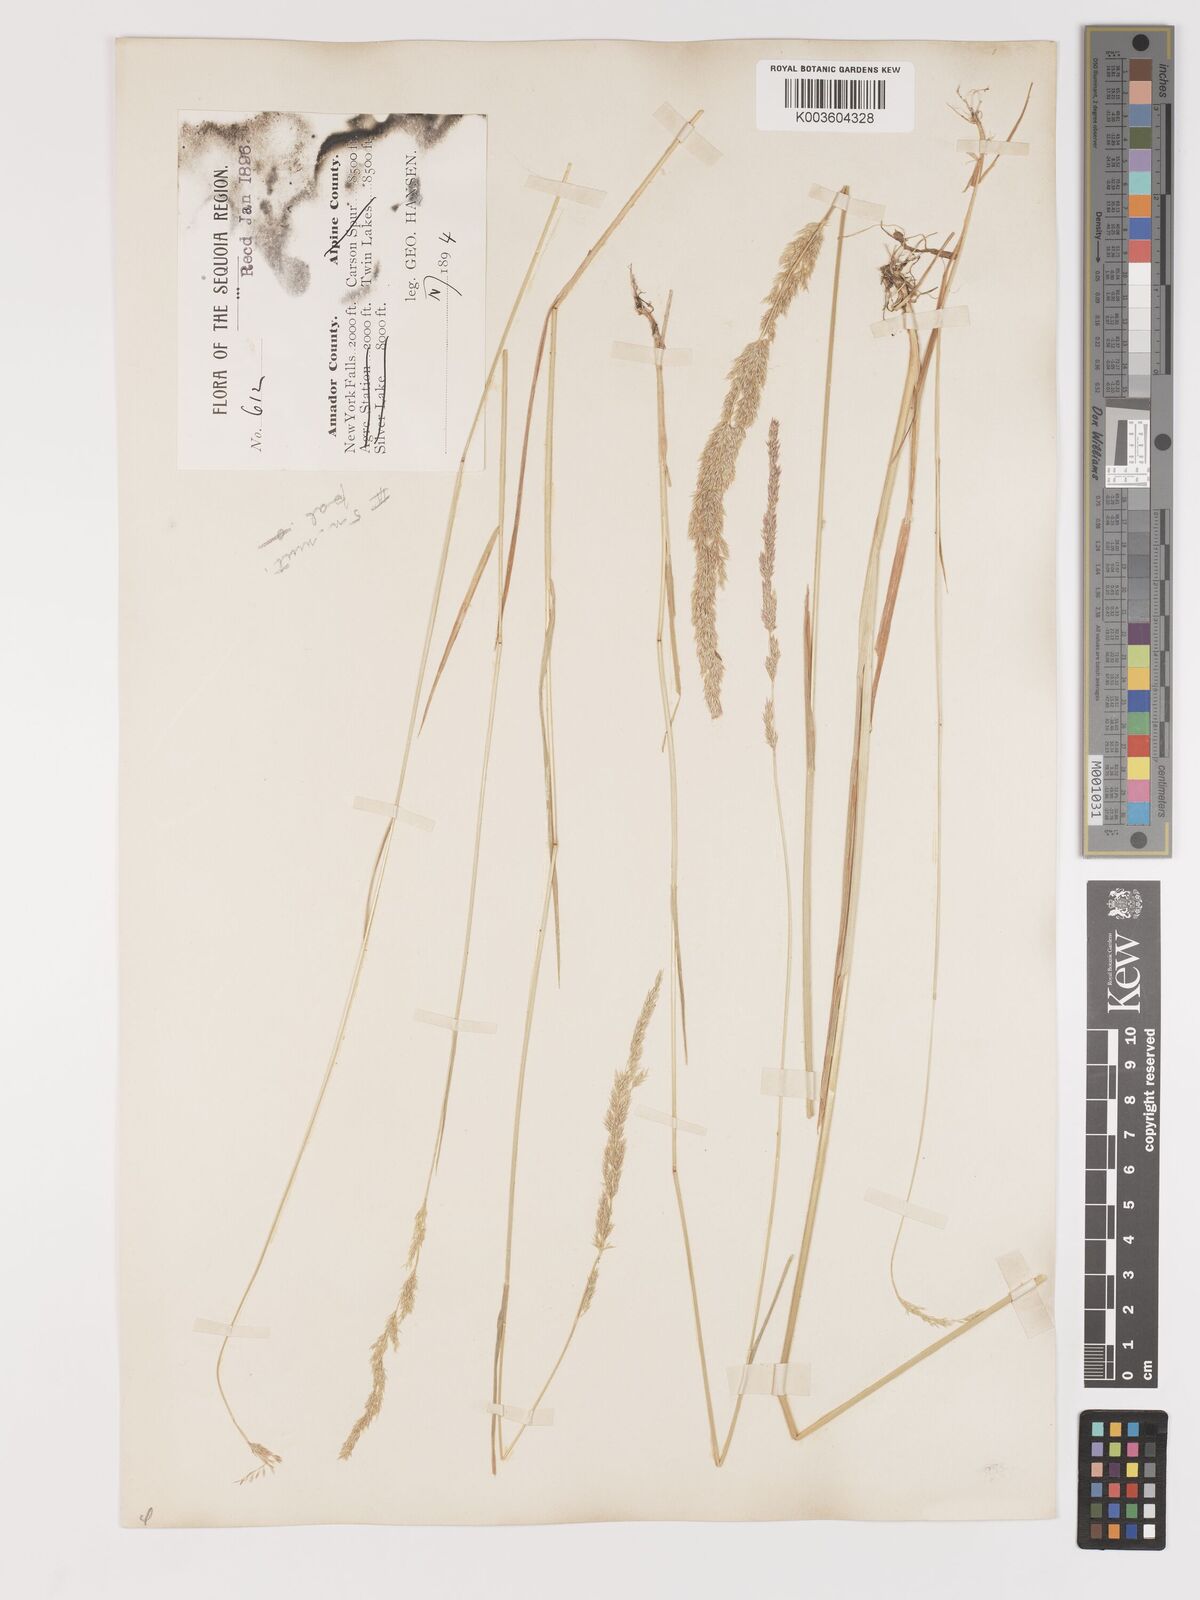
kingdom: Plantae
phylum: Tracheophyta
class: Liliopsida
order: Poales
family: Poaceae
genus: Agrostis
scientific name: Agrostis exarata
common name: Spike bent
